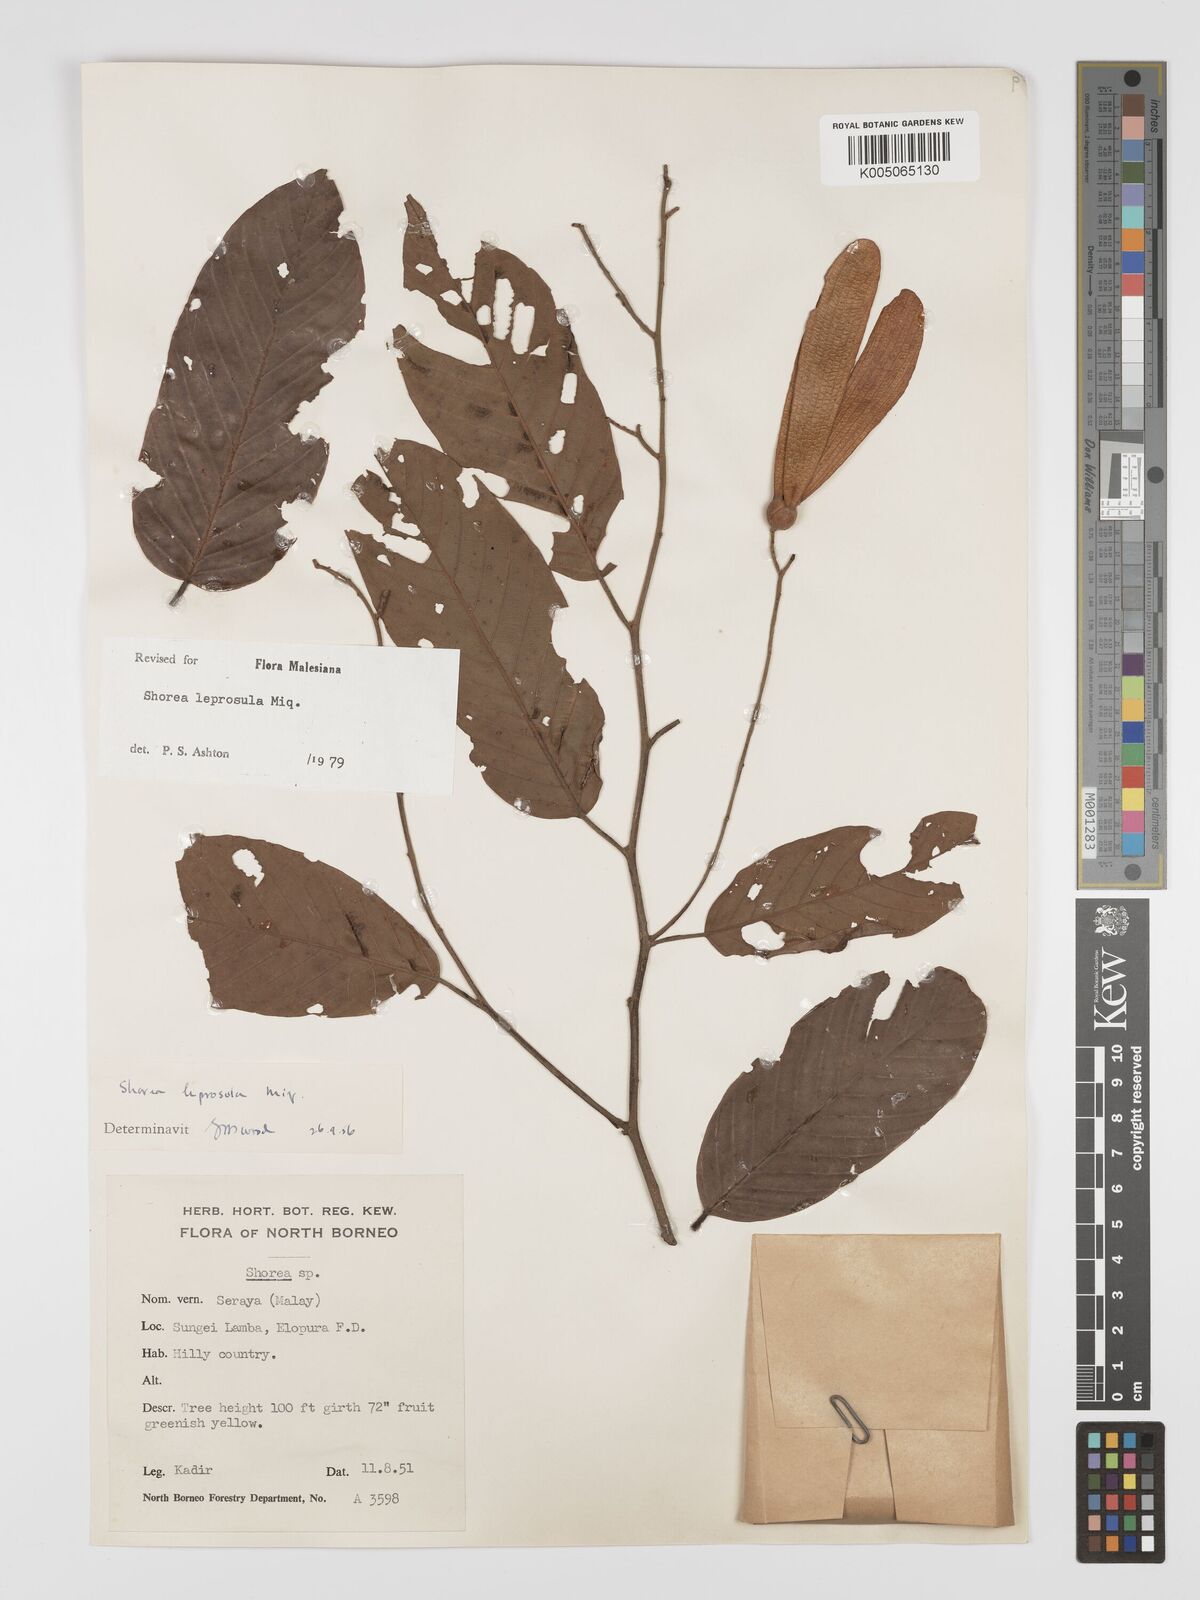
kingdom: Plantae
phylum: Tracheophyta
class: Magnoliopsida
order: Malvales
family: Dipterocarpaceae
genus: Shorea
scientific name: Shorea leprosula
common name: Light red meranti
